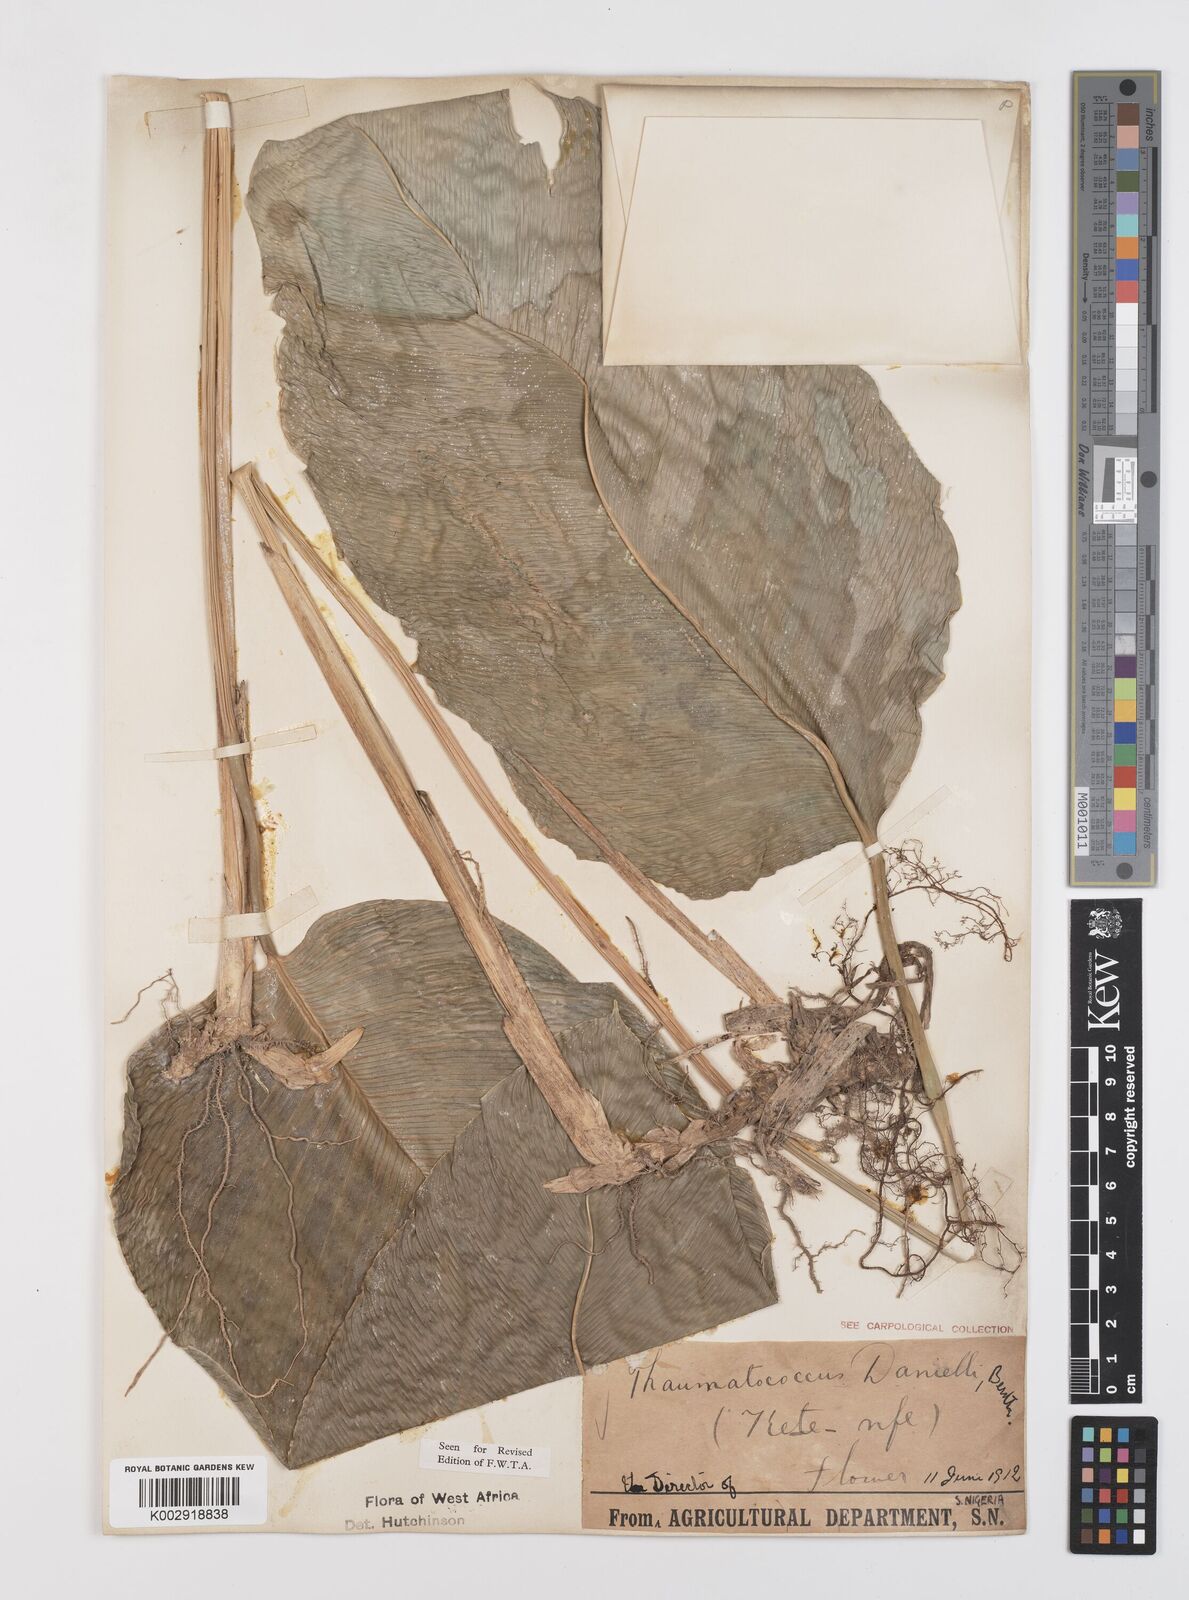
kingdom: Plantae
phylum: Tracheophyta
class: Liliopsida
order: Zingiberales
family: Marantaceae
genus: Thaumatococcus
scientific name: Thaumatococcus daniellii
